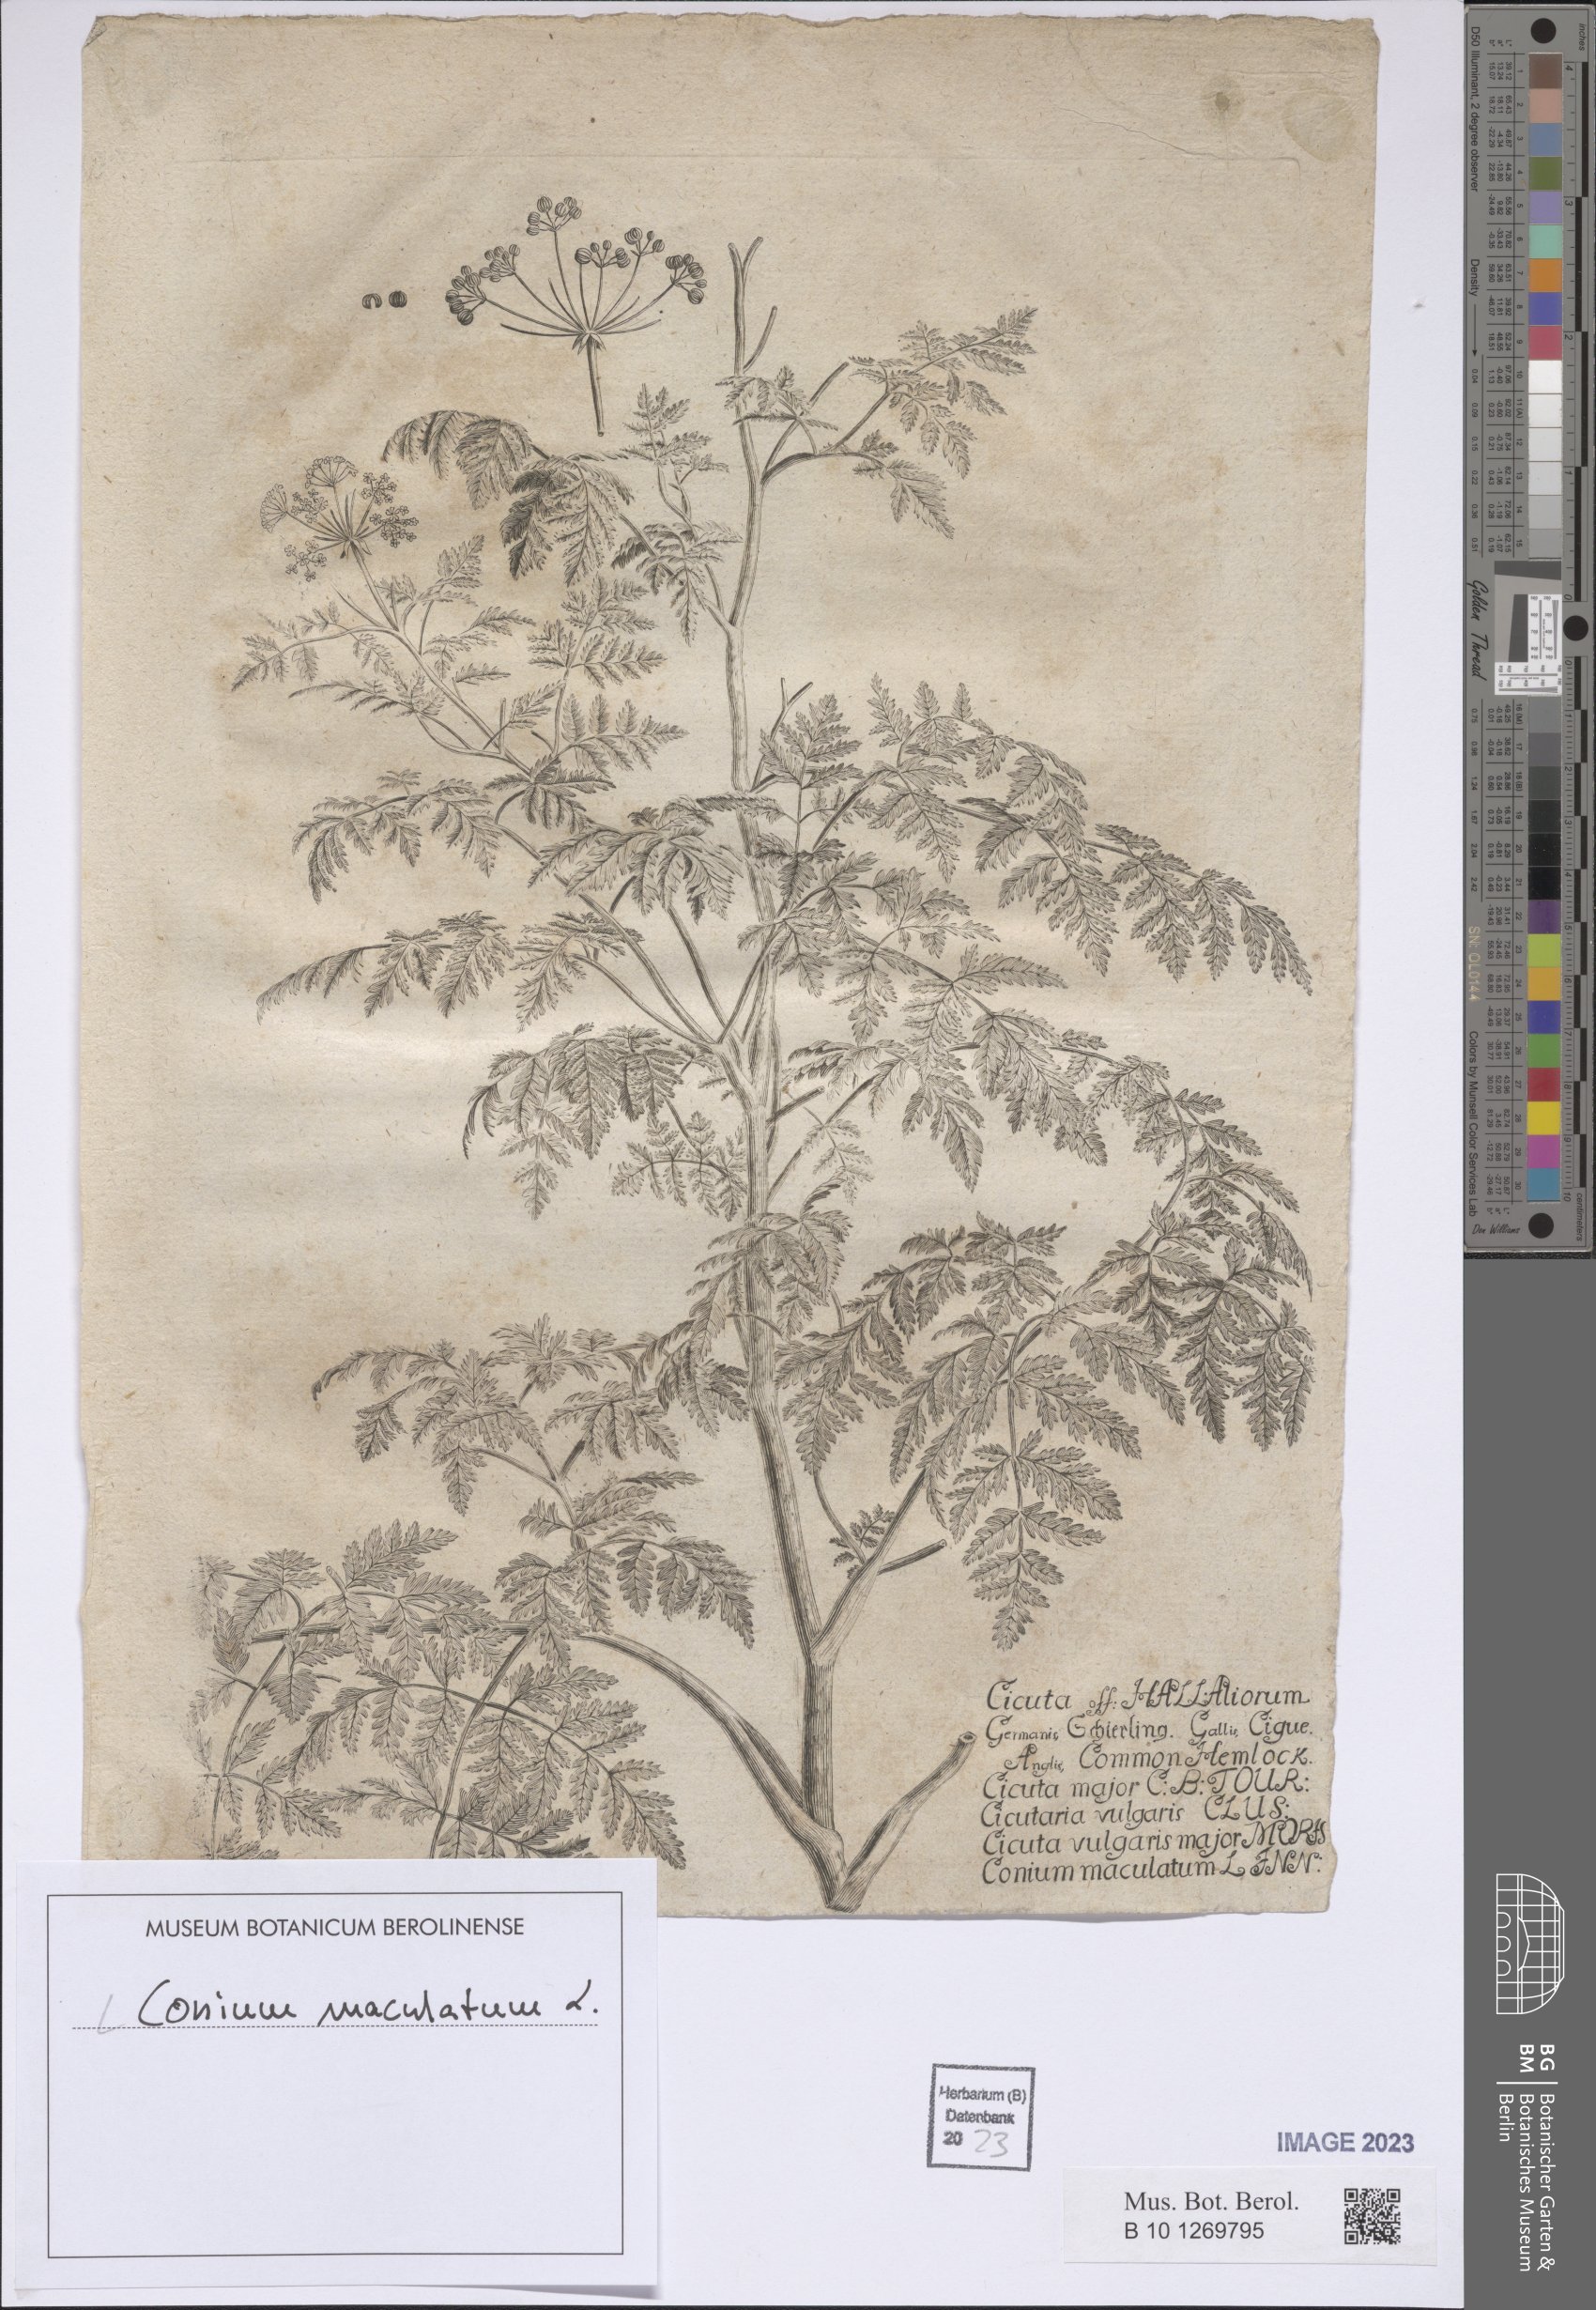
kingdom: Plantae
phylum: Tracheophyta
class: Magnoliopsida
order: Apiales
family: Apiaceae
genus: Conium
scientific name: Conium maculatum
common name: Hemlock
